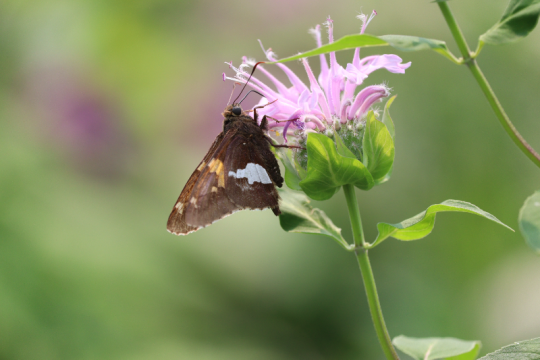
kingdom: Animalia
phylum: Arthropoda
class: Insecta
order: Lepidoptera
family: Hesperiidae
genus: Epargyreus
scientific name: Epargyreus clarus
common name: Silver-spotted Skipper
